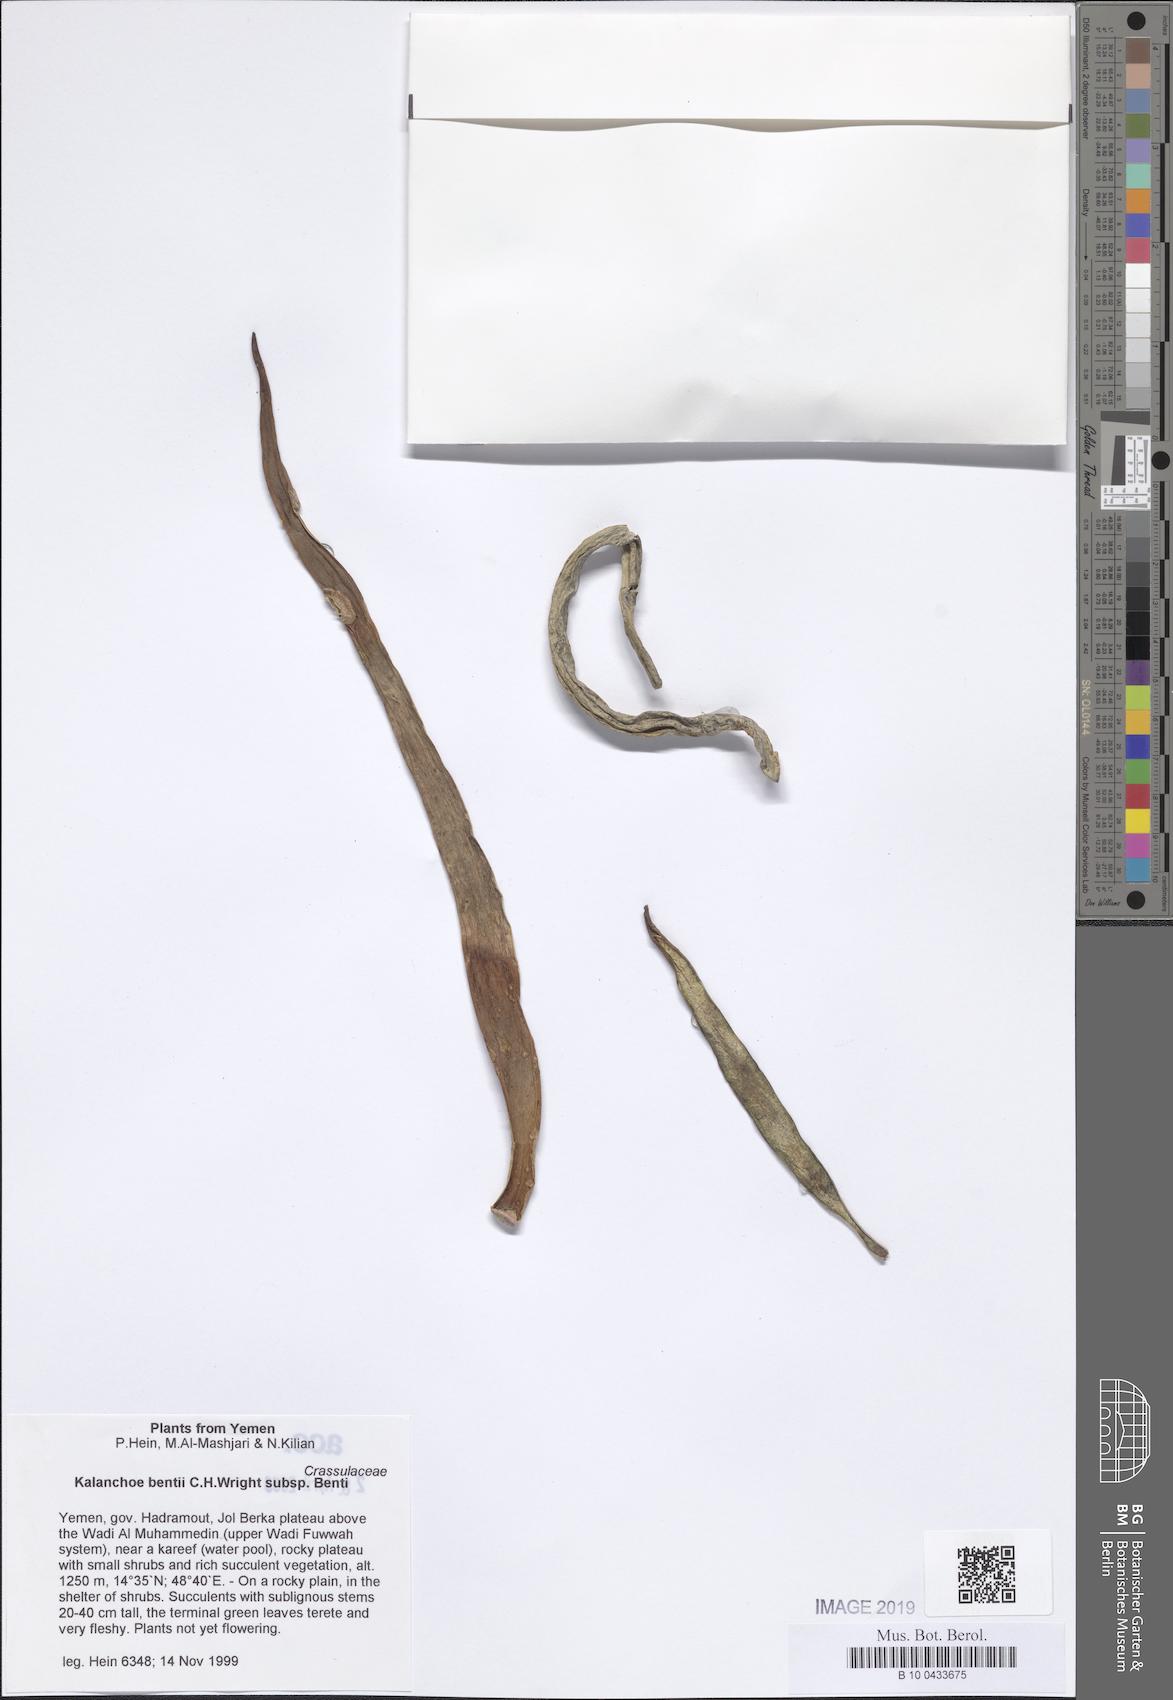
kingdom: Plantae
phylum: Tracheophyta
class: Magnoliopsida
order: Saxifragales
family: Crassulaceae
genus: Kalanchoe
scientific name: Kalanchoe bentii
